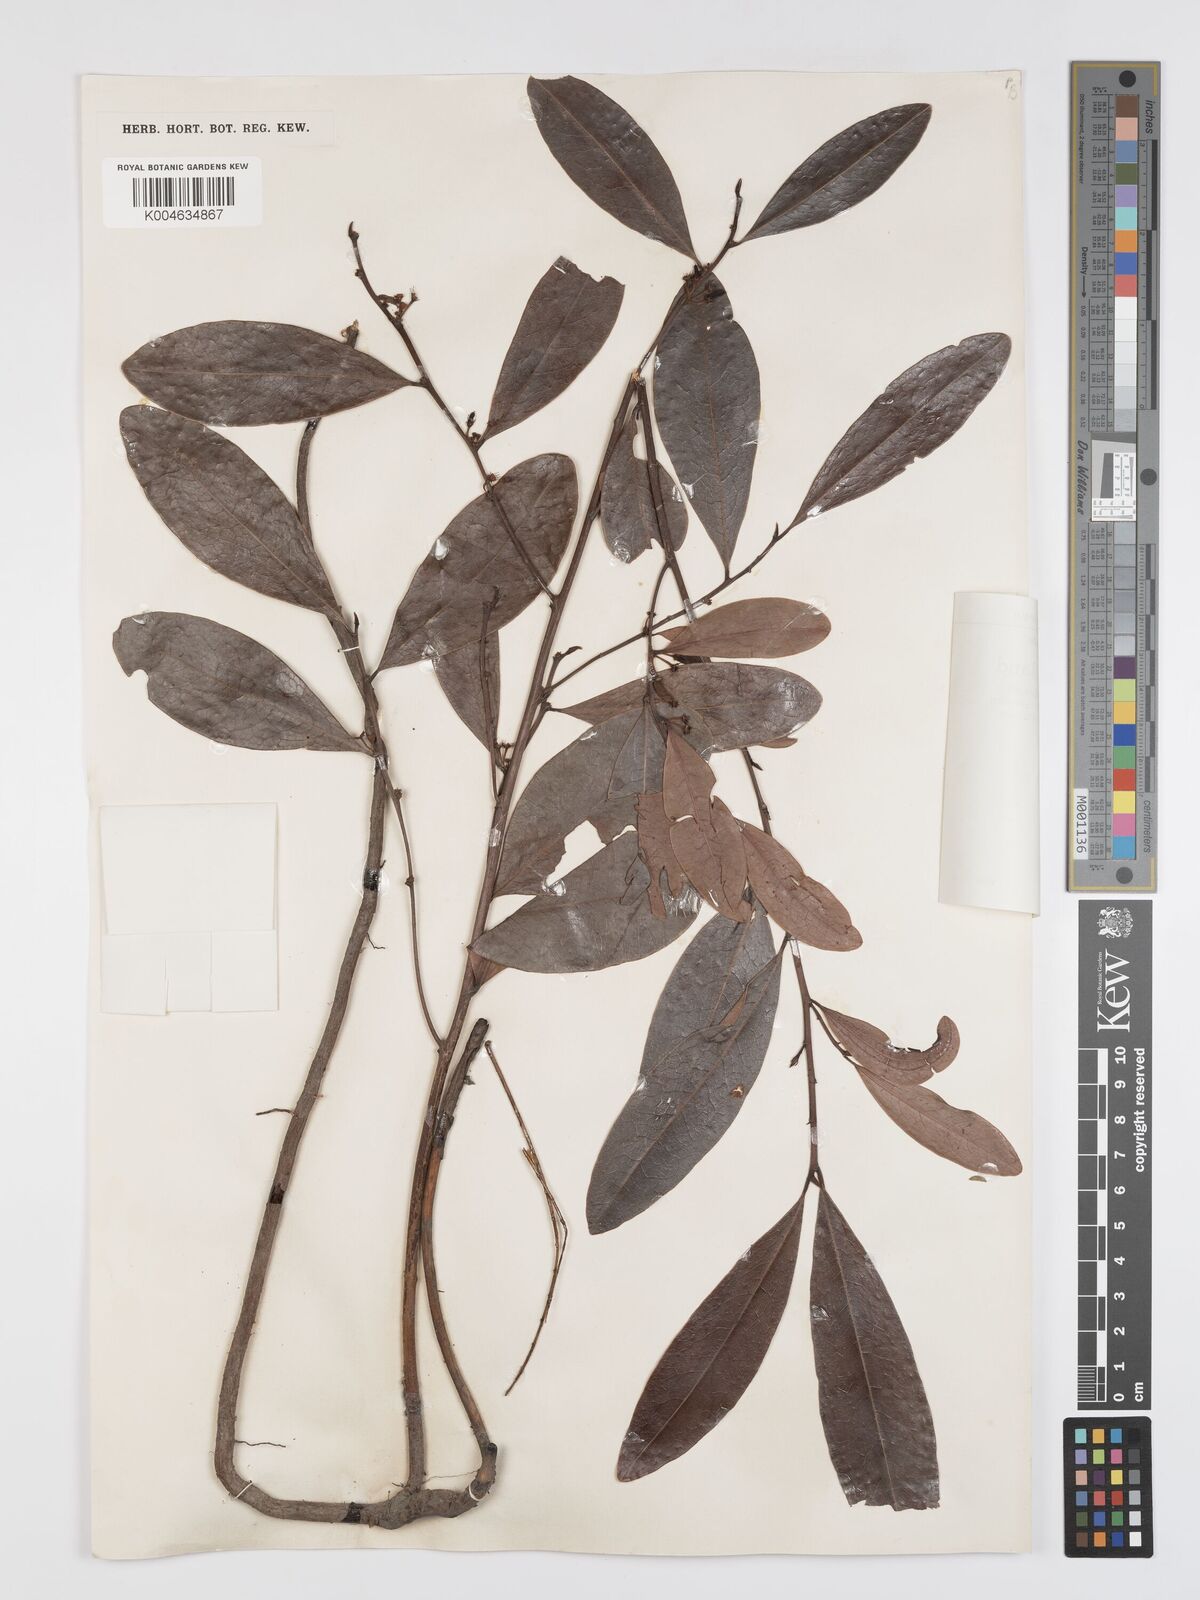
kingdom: Plantae
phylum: Tracheophyta
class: Magnoliopsida
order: Malpighiales
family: Erythroxylaceae
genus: Erythroxylum
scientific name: Erythroxylum cuneatum
